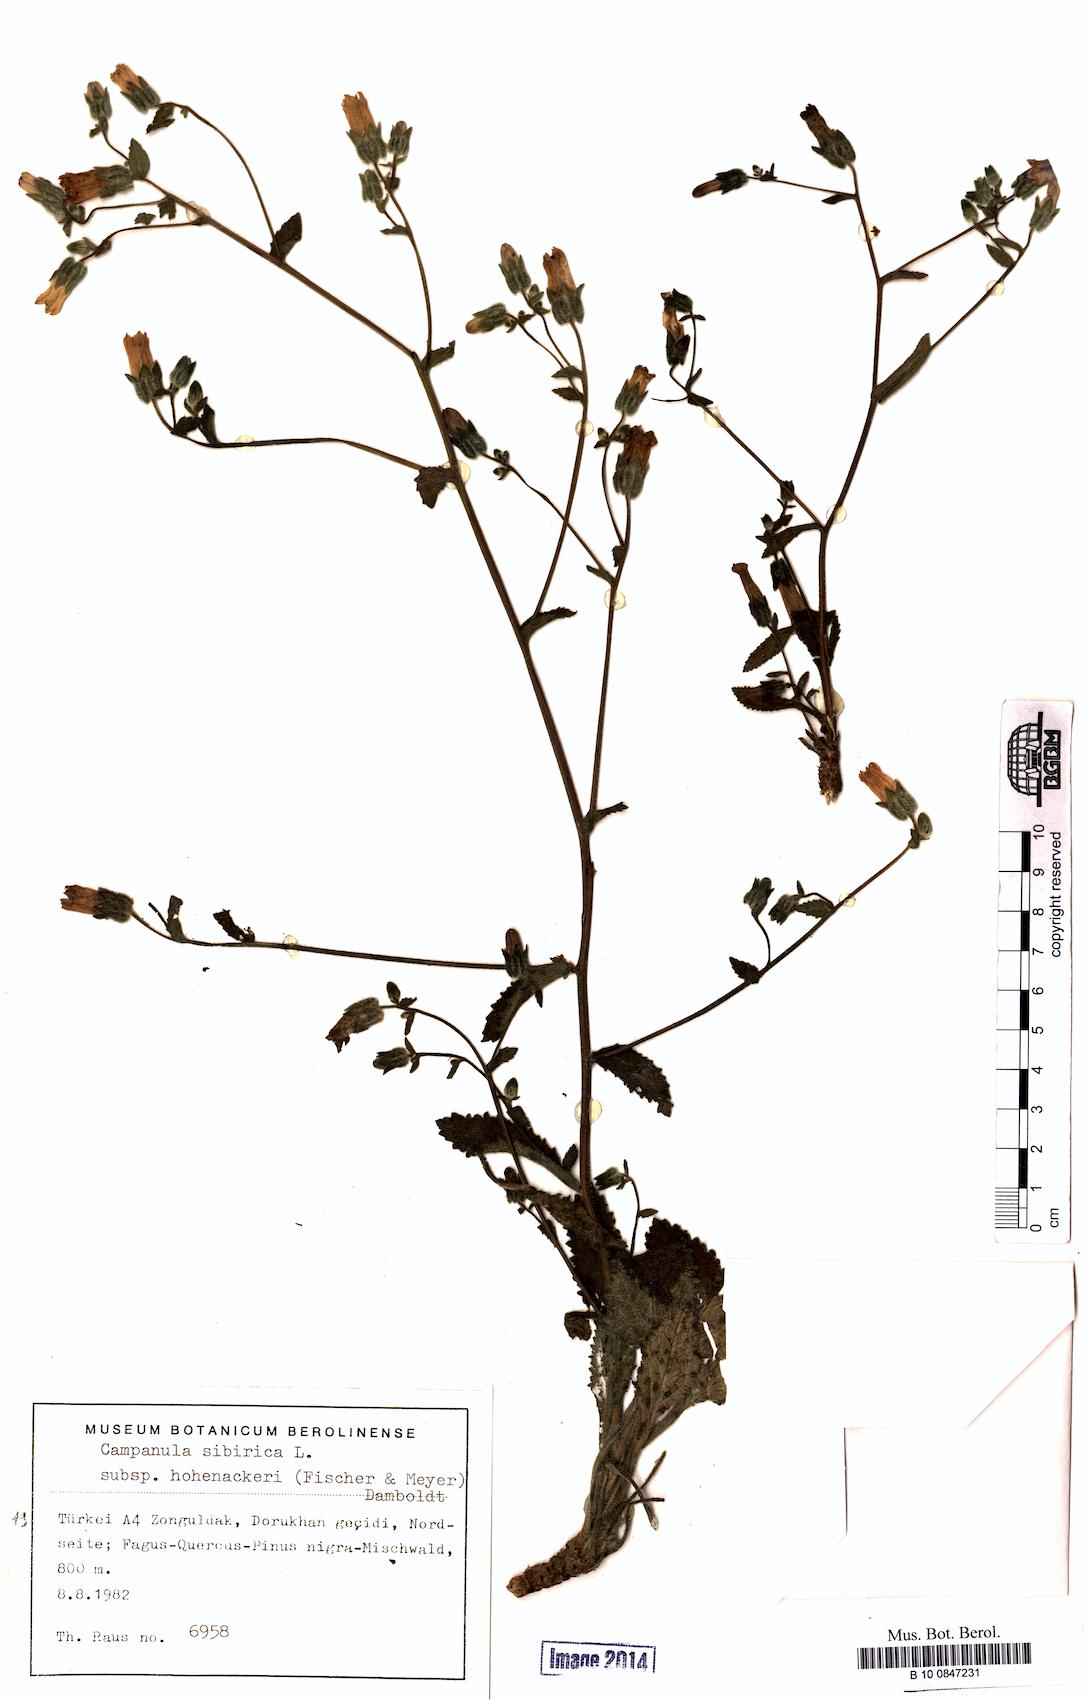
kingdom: Plantae
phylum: Tracheophyta
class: Magnoliopsida
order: Asterales
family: Campanulaceae
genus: Campanula
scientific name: Campanula sibirica
